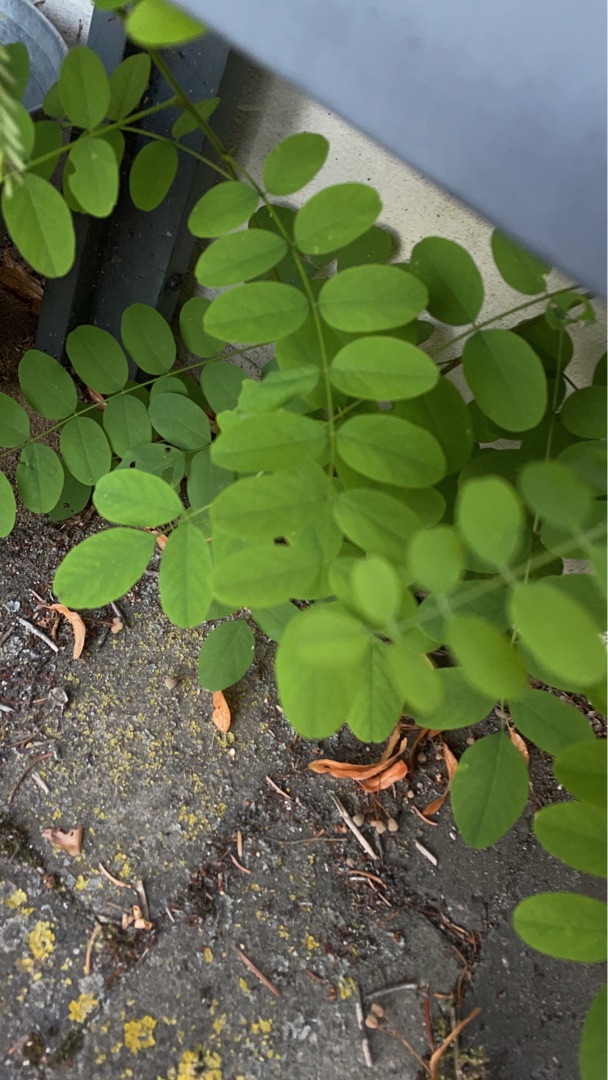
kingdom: Plantae
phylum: Tracheophyta
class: Magnoliopsida
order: Fabales
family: Fabaceae
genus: Robinia
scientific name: Robinia pseudoacacia
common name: Robinie
